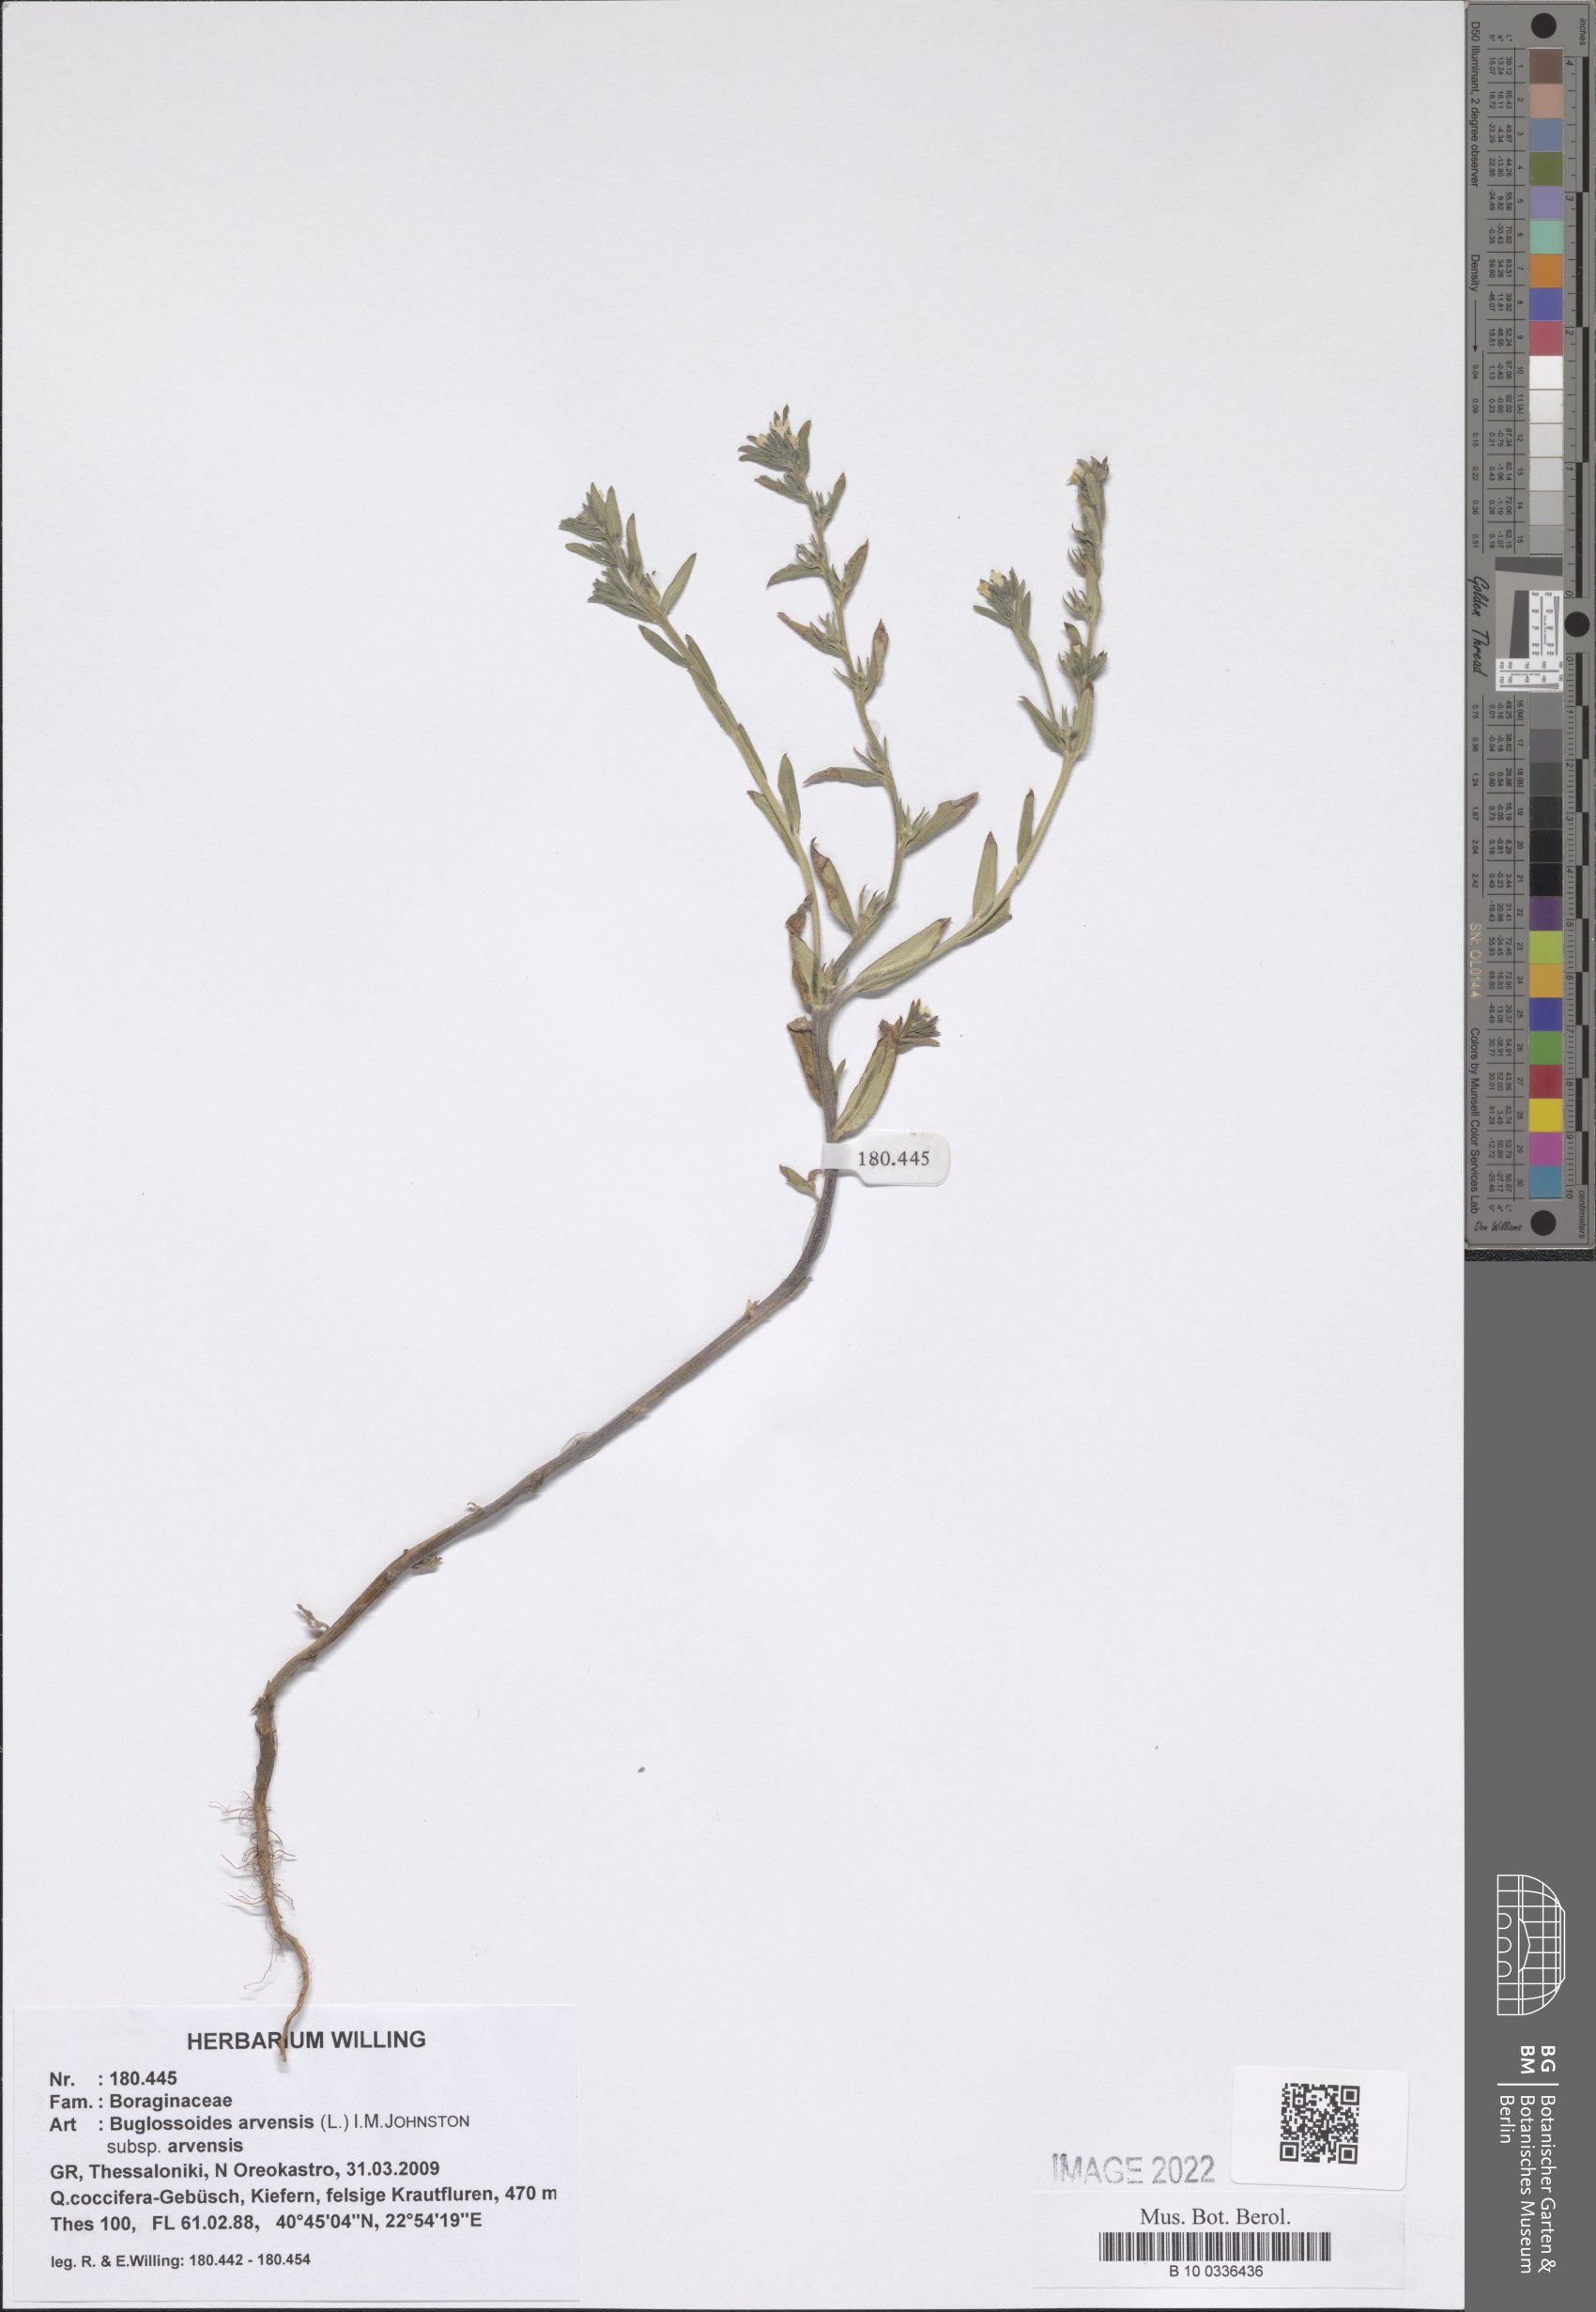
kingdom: Plantae
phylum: Tracheophyta
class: Magnoliopsida
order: Boraginales
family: Boraginaceae
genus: Buglossoides
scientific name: Buglossoides arvensis
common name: Corn gromwell
